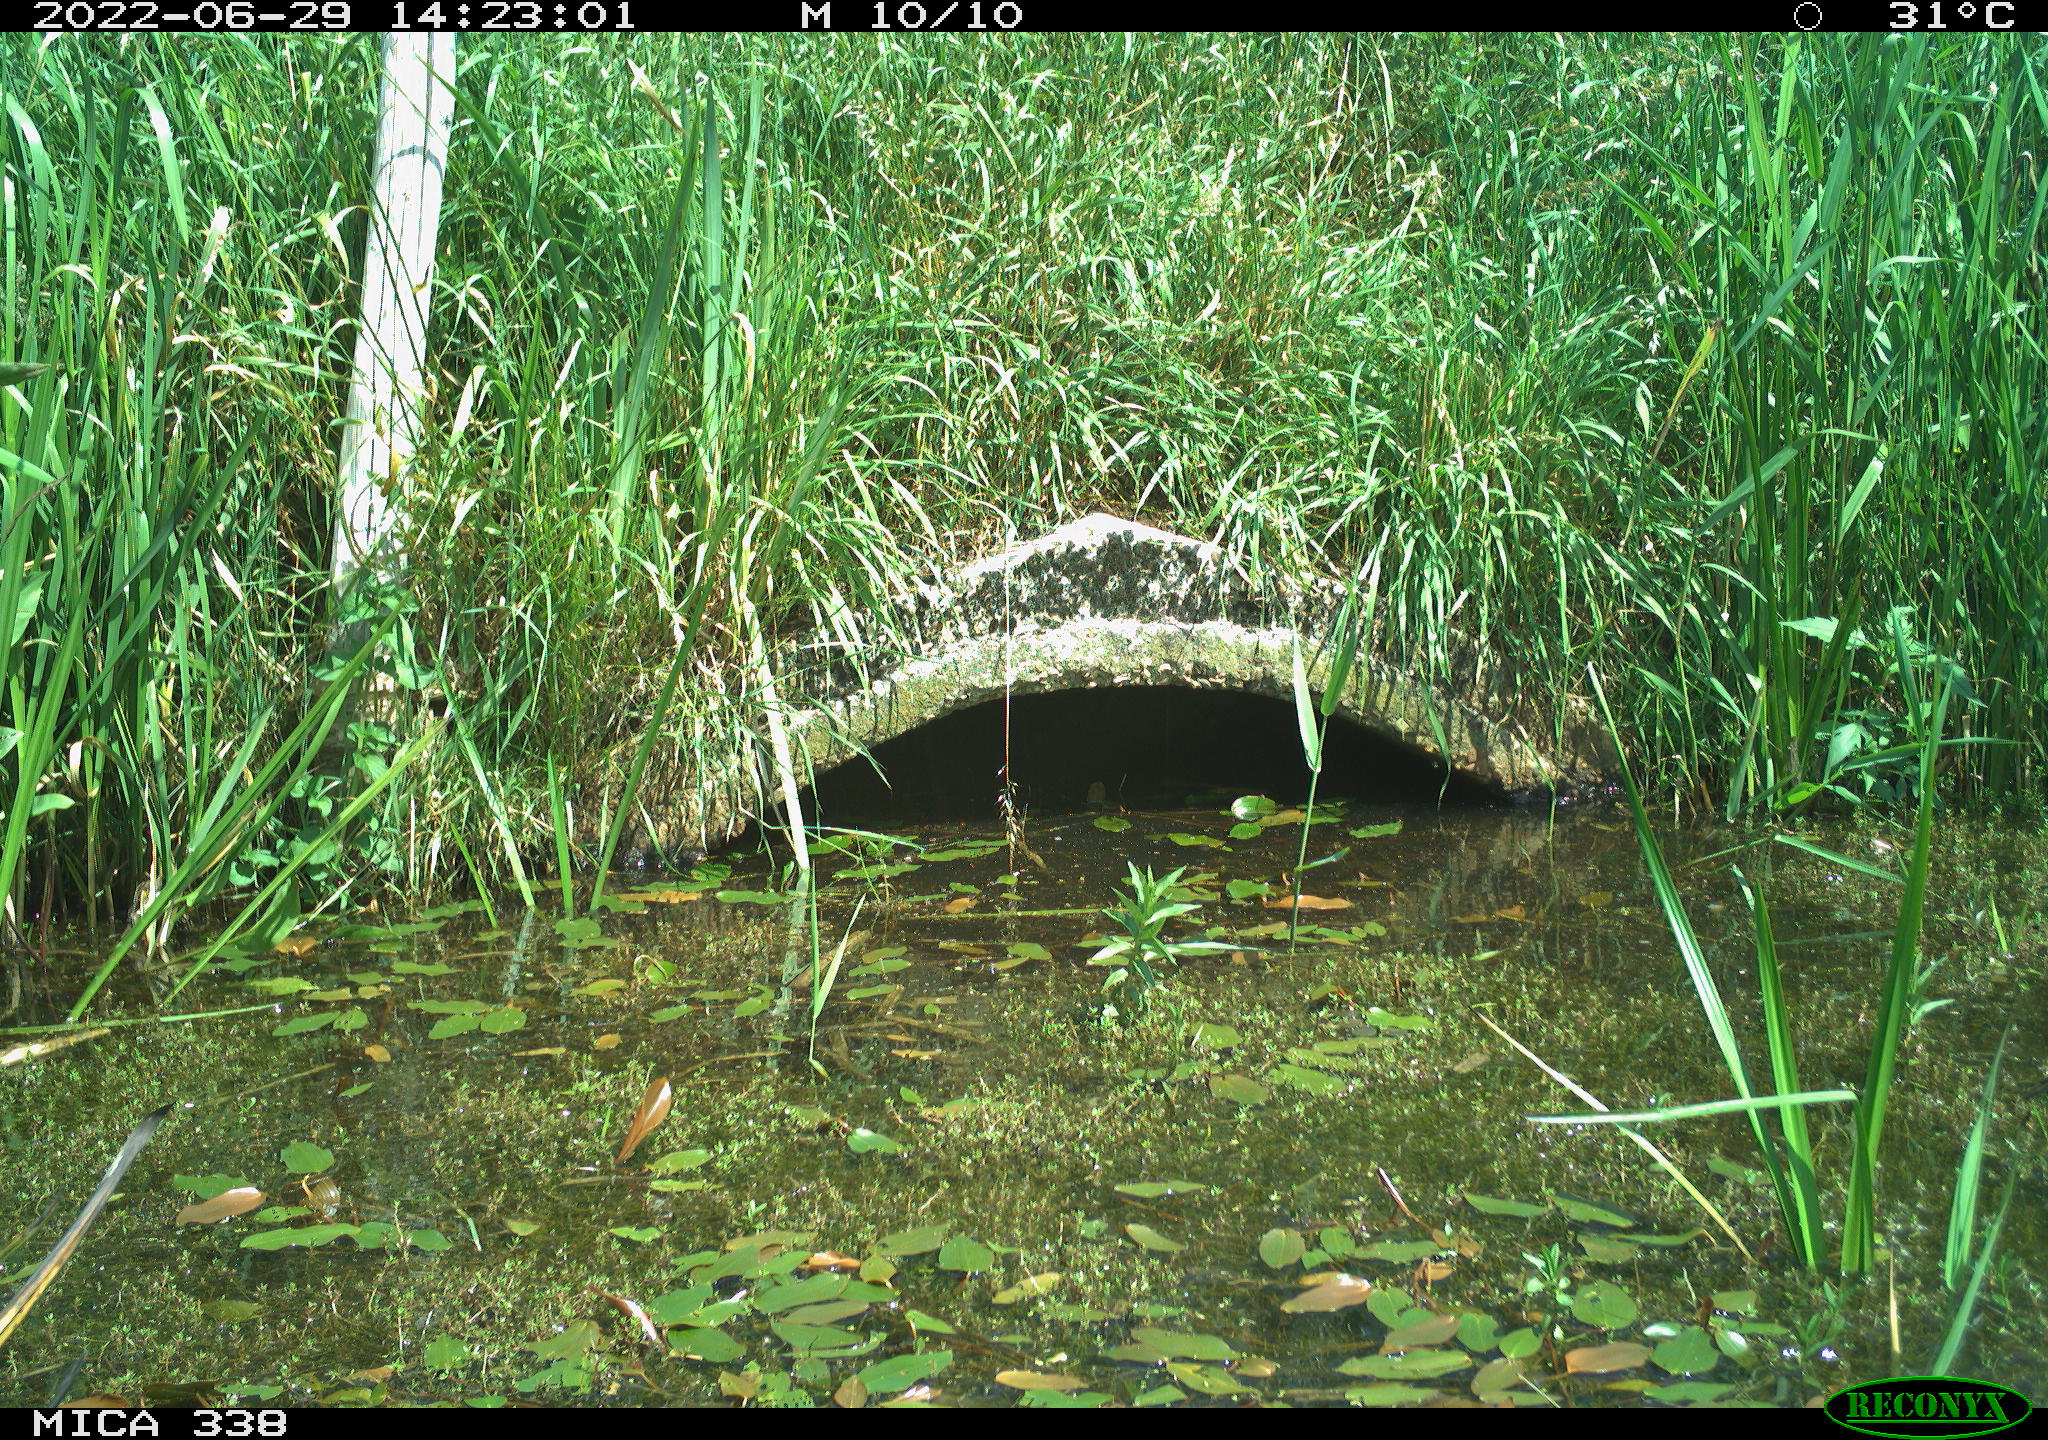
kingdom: Animalia
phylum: Chordata
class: Aves
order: Anseriformes
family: Anatidae
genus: Anas
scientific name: Anas platyrhynchos
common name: Mallard
